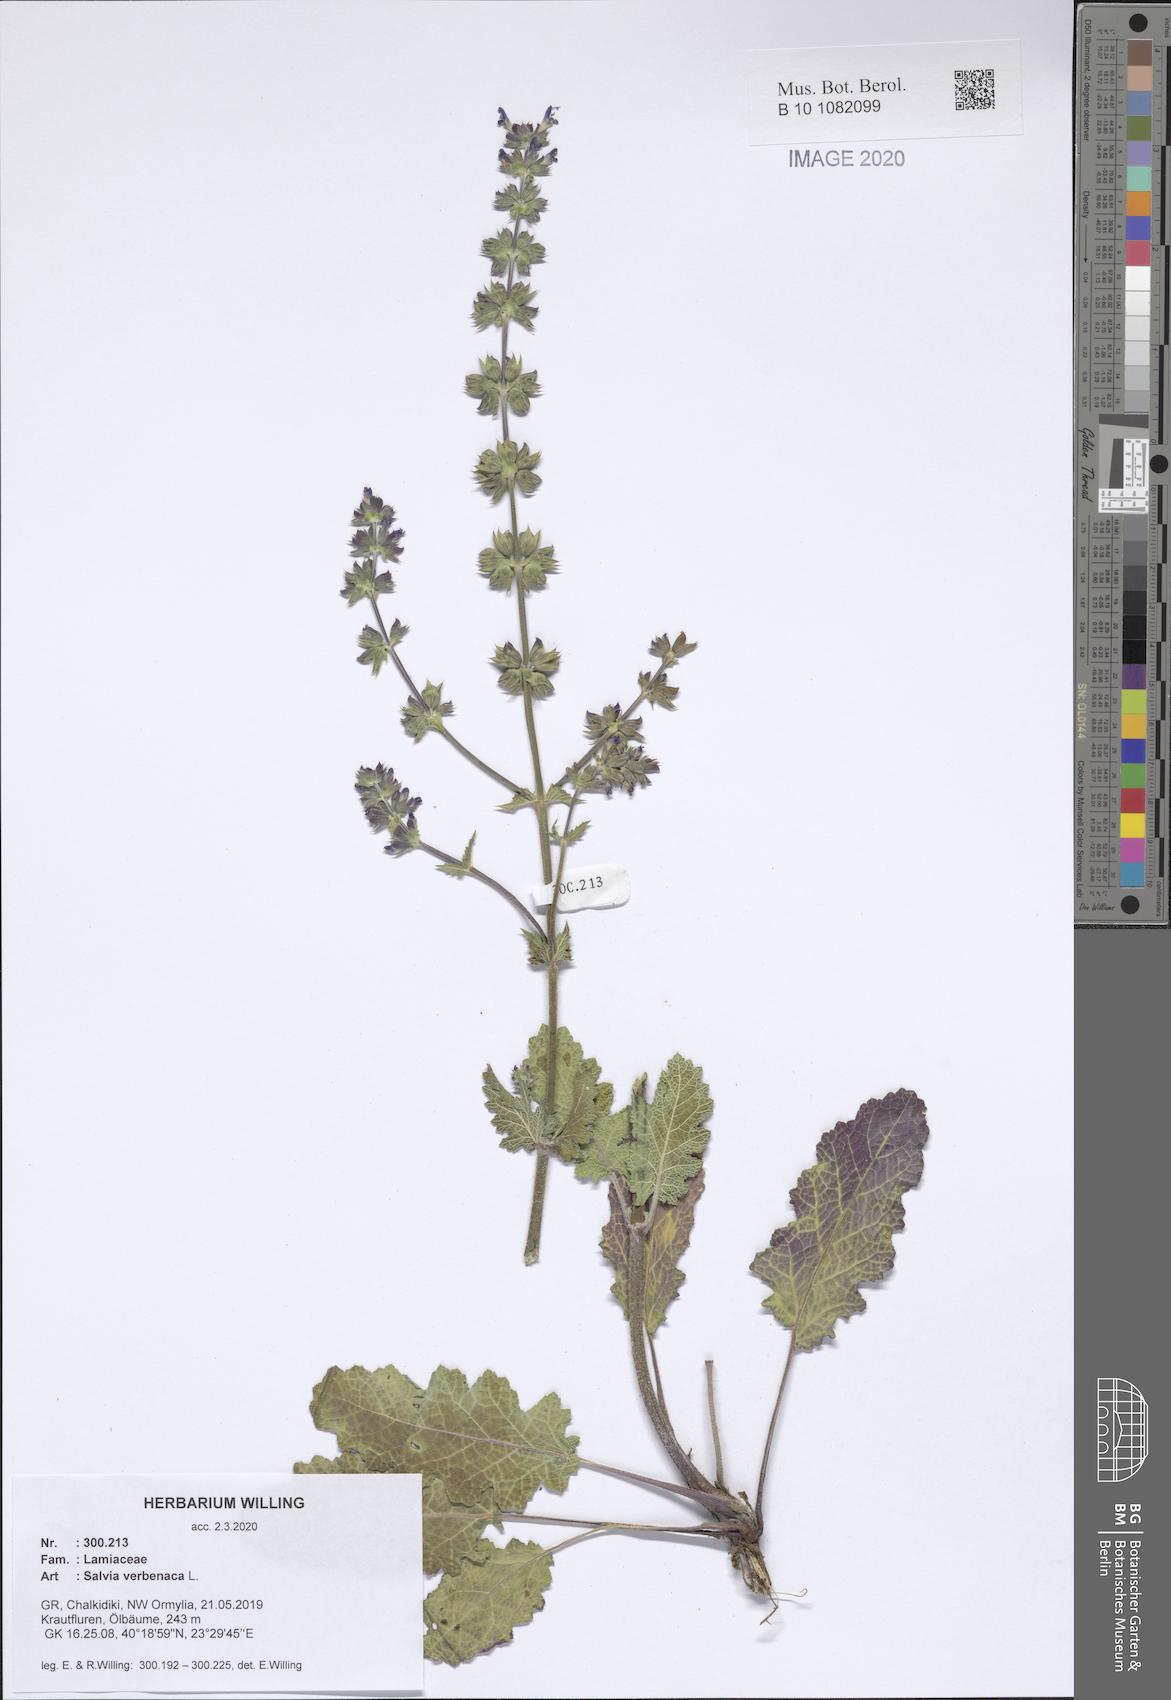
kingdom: Plantae
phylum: Tracheophyta
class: Magnoliopsida
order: Lamiales
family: Lamiaceae
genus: Salvia
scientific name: Salvia verbenaca
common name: Wild clary
